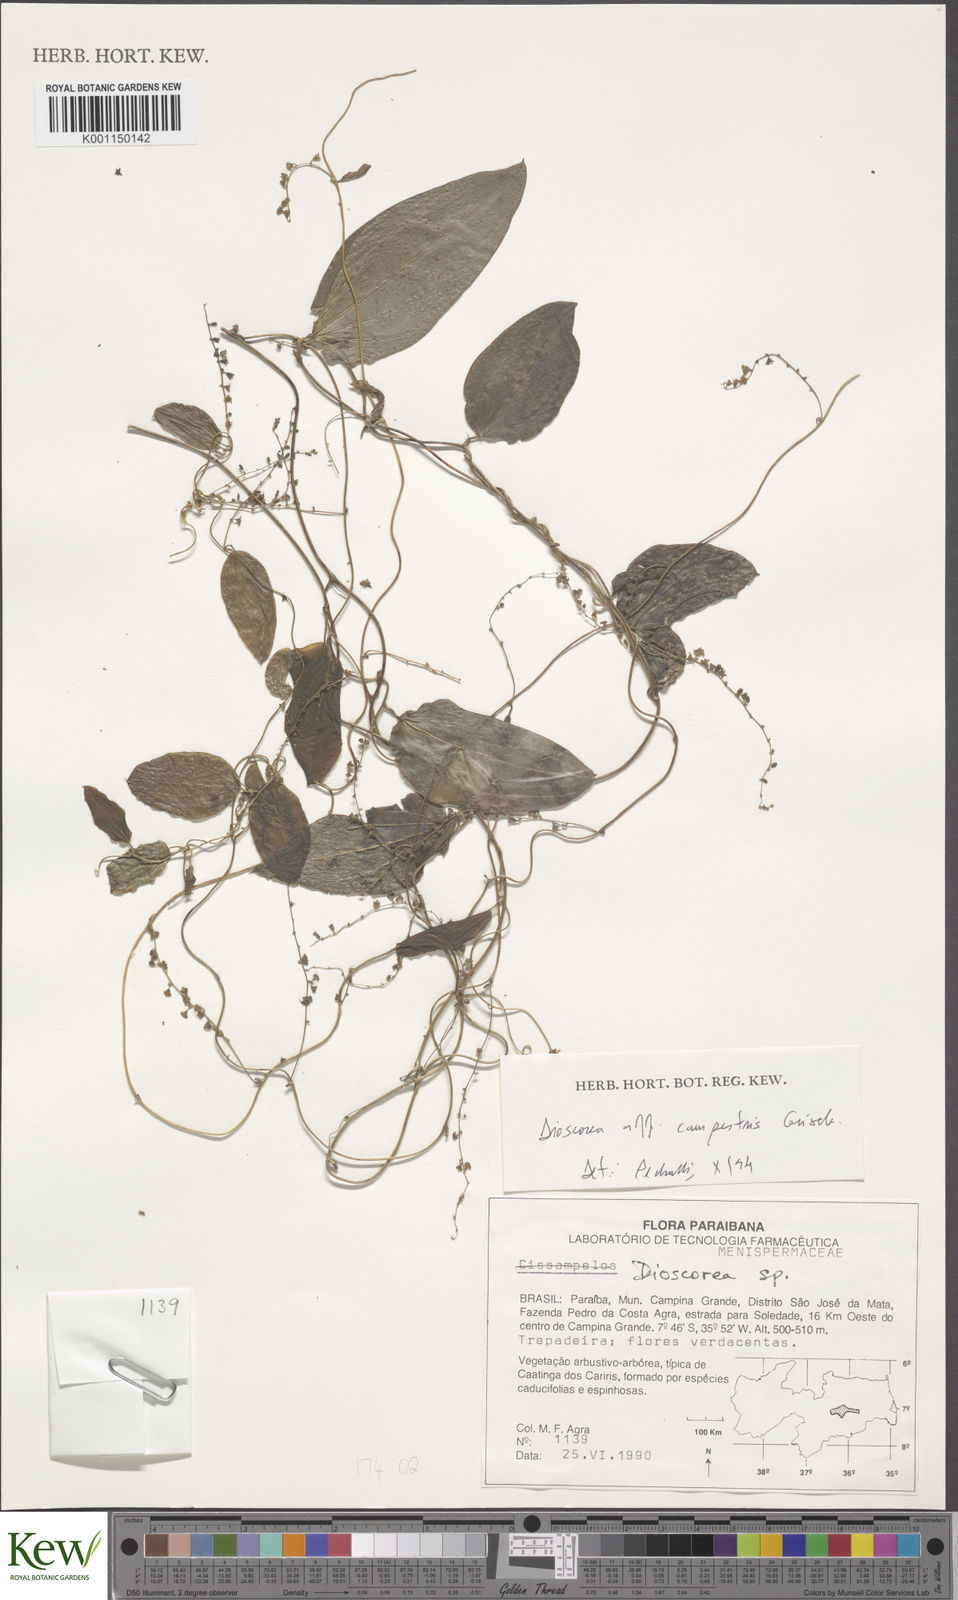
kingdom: Plantae
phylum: Tracheophyta
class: Liliopsida
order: Dioscoreales
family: Dioscoreaceae
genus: Dioscorea
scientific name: Dioscorea
